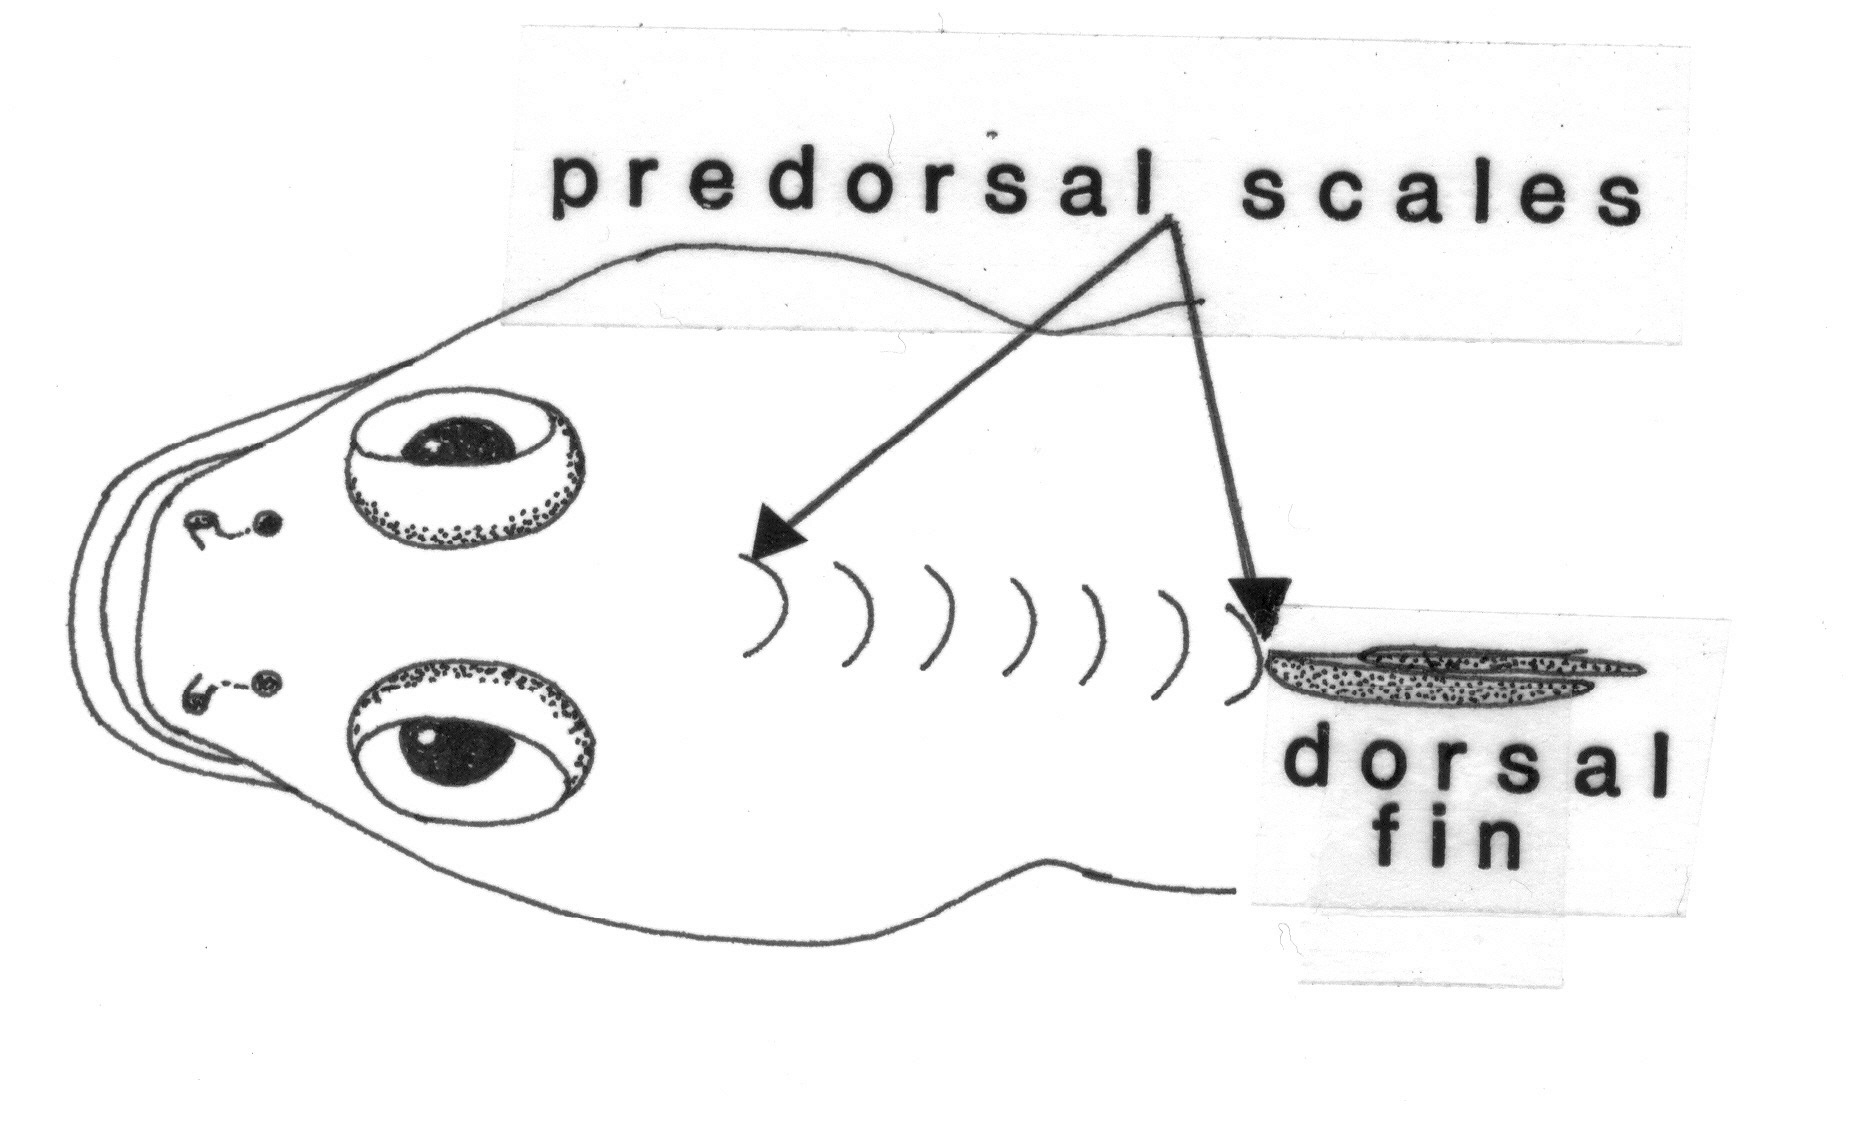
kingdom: Animalia
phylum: Chordata
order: Perciformes
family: Gobiidae
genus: Asterropteryx
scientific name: Asterropteryx semipunctata
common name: Starry goby
